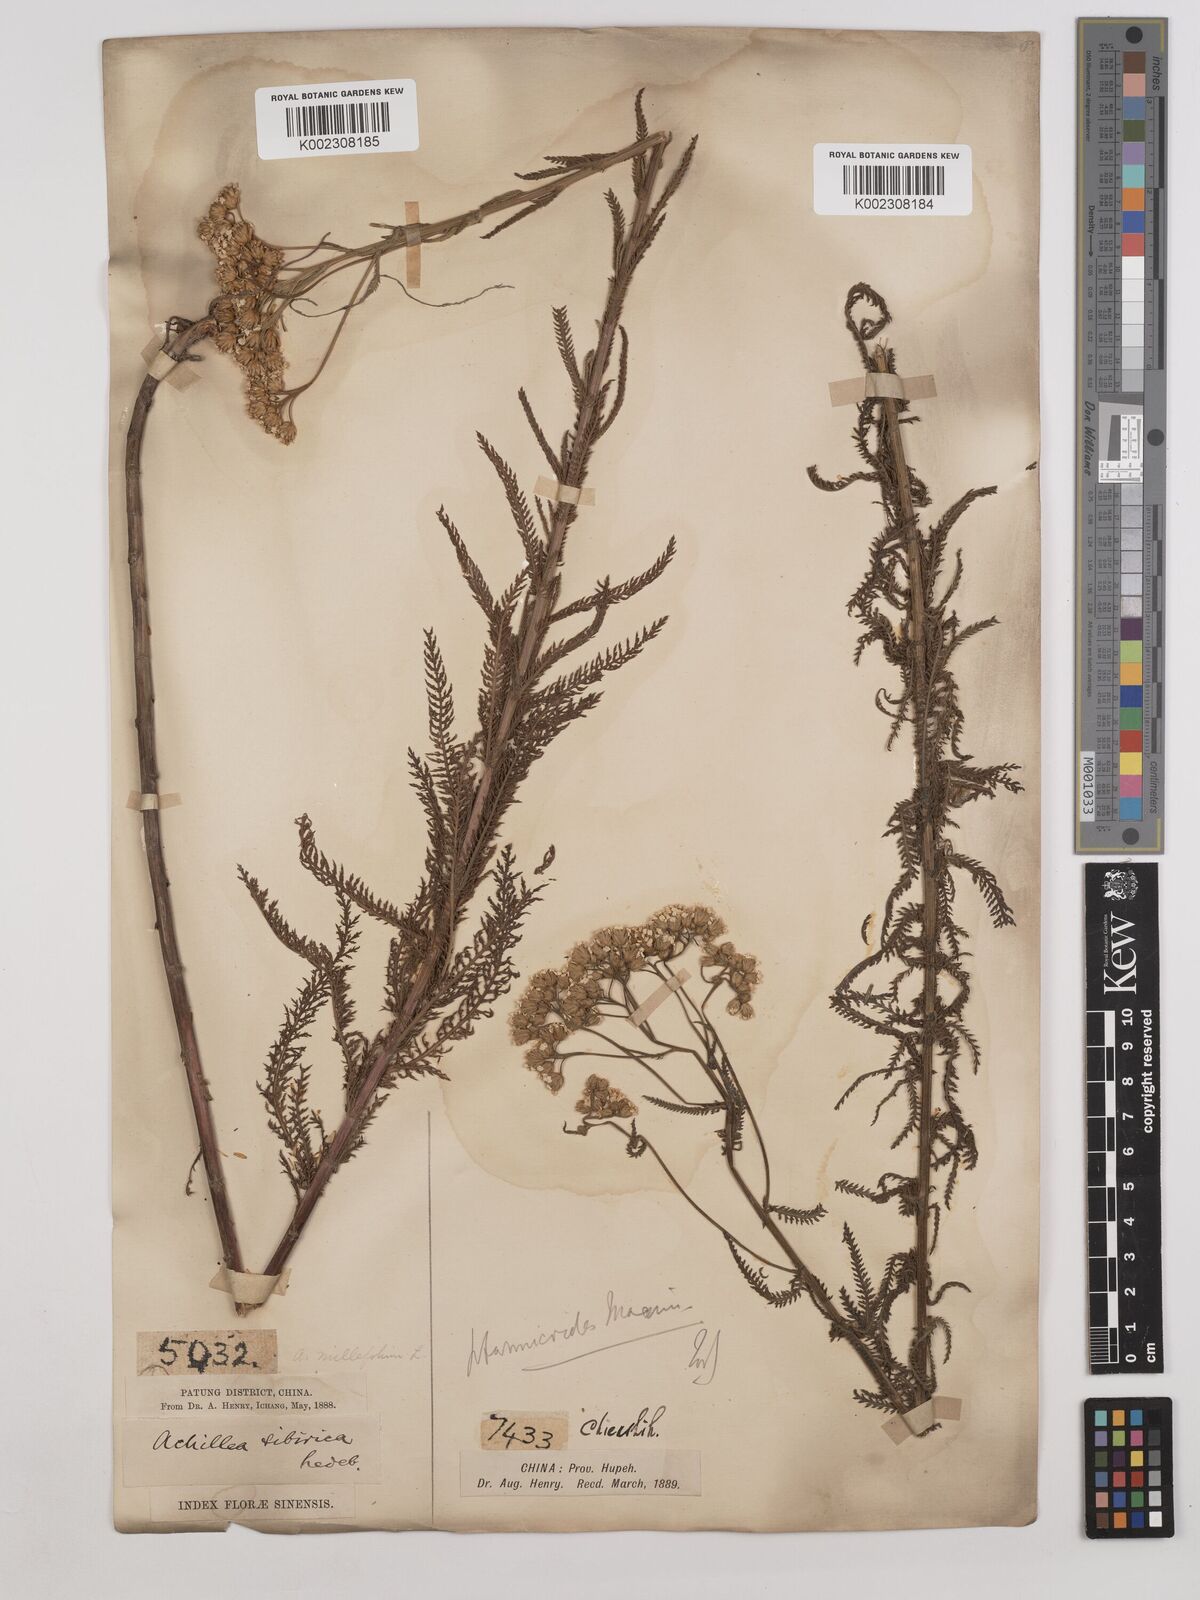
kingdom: Plantae
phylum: Tracheophyta
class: Magnoliopsida
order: Asterales
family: Asteraceae
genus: Achillea
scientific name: Achillea alpina
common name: Siberian yarrow
